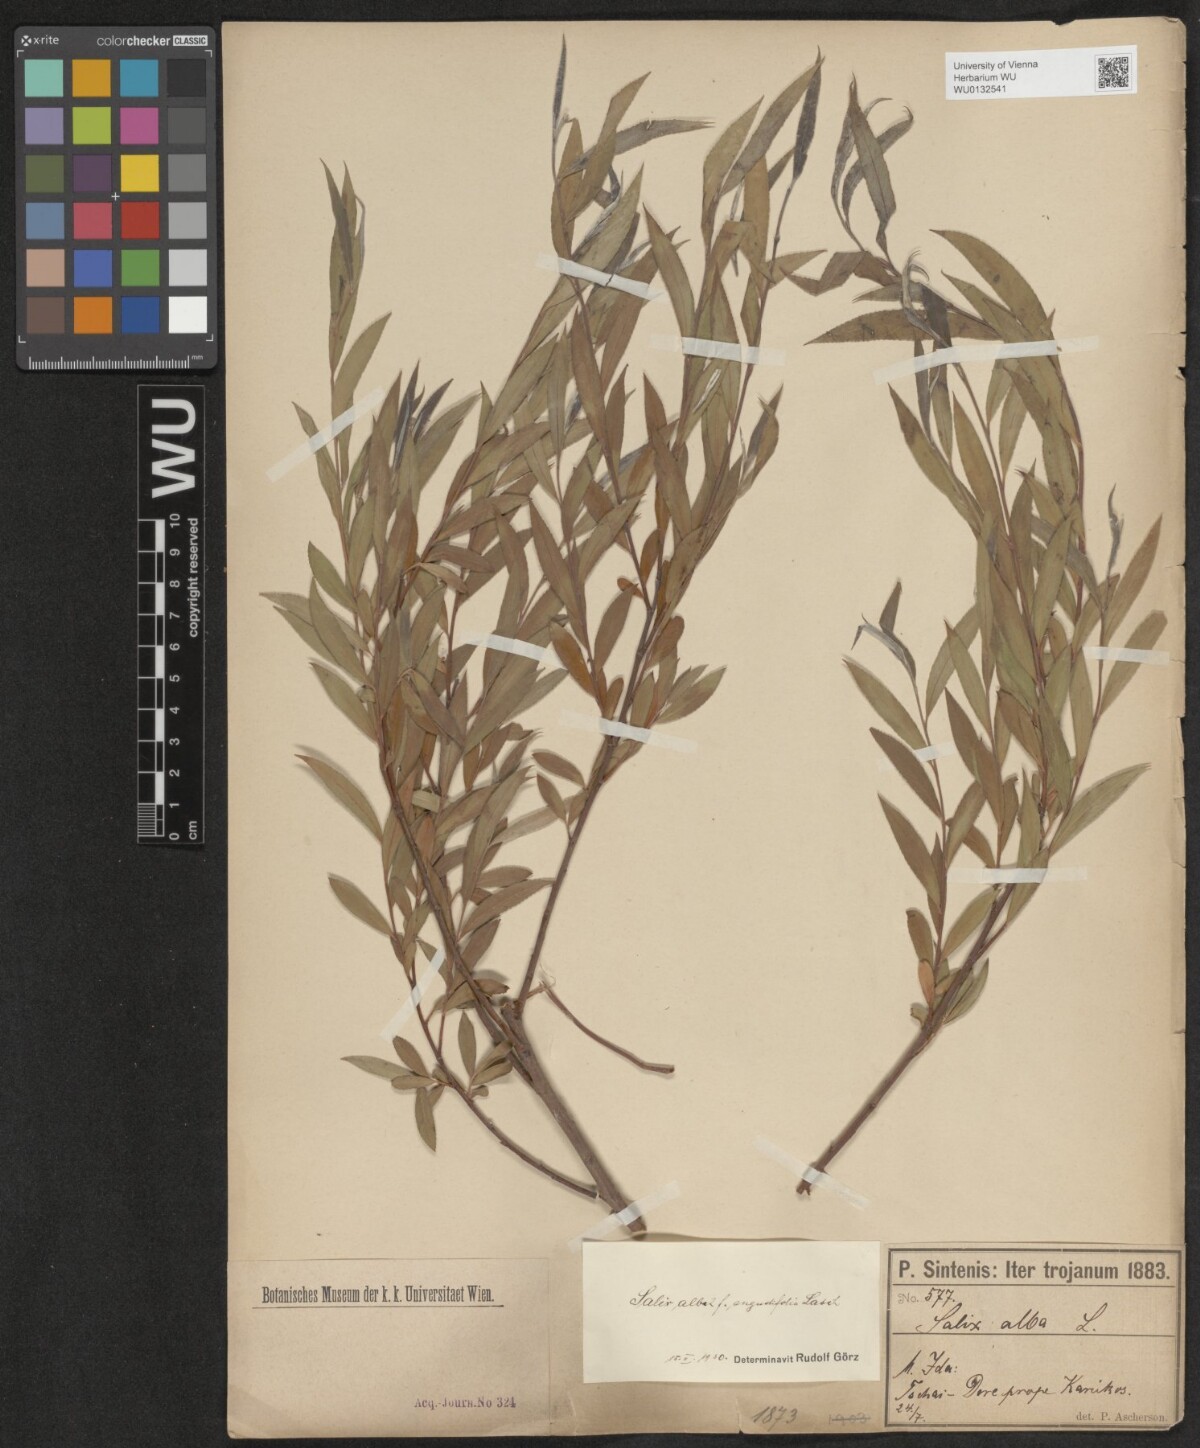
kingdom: Plantae
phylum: Tracheophyta
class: Magnoliopsida
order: Malpighiales
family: Salicaceae
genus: Salix
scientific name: Salix alba
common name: White willow
